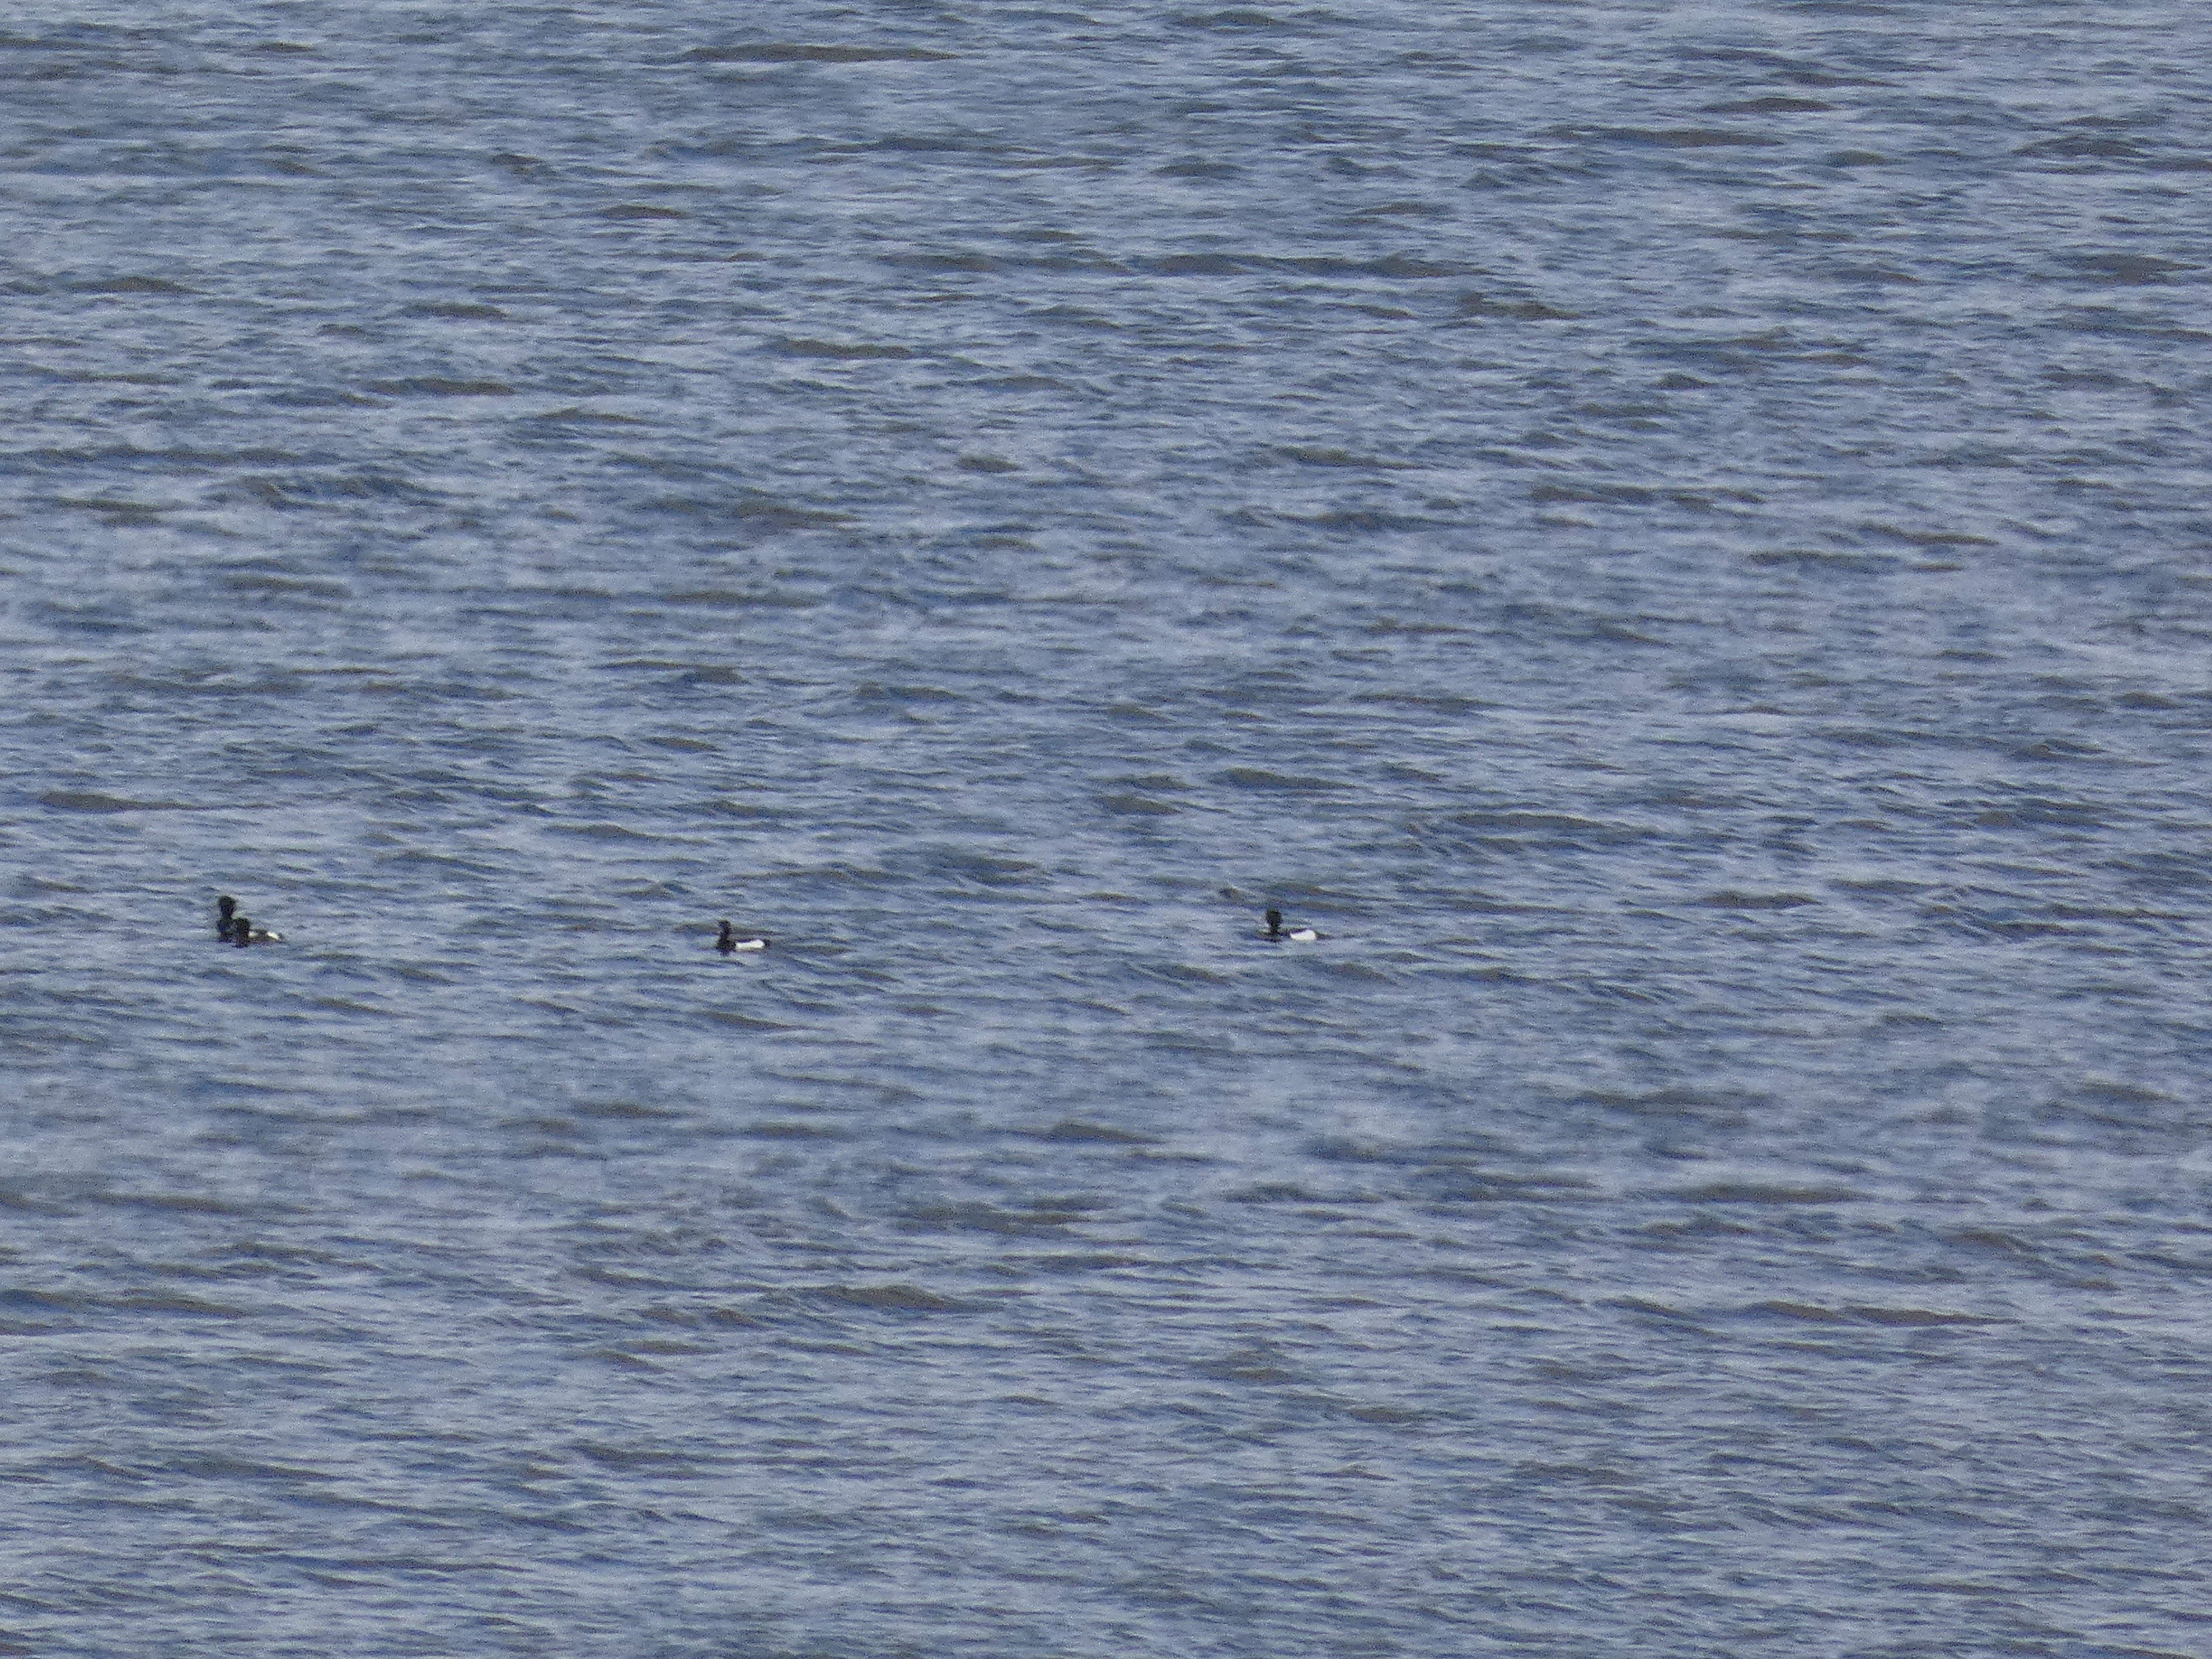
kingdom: Animalia
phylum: Chordata
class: Aves
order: Anseriformes
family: Anatidae
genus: Aythya
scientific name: Aythya fuligula
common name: Troldand
